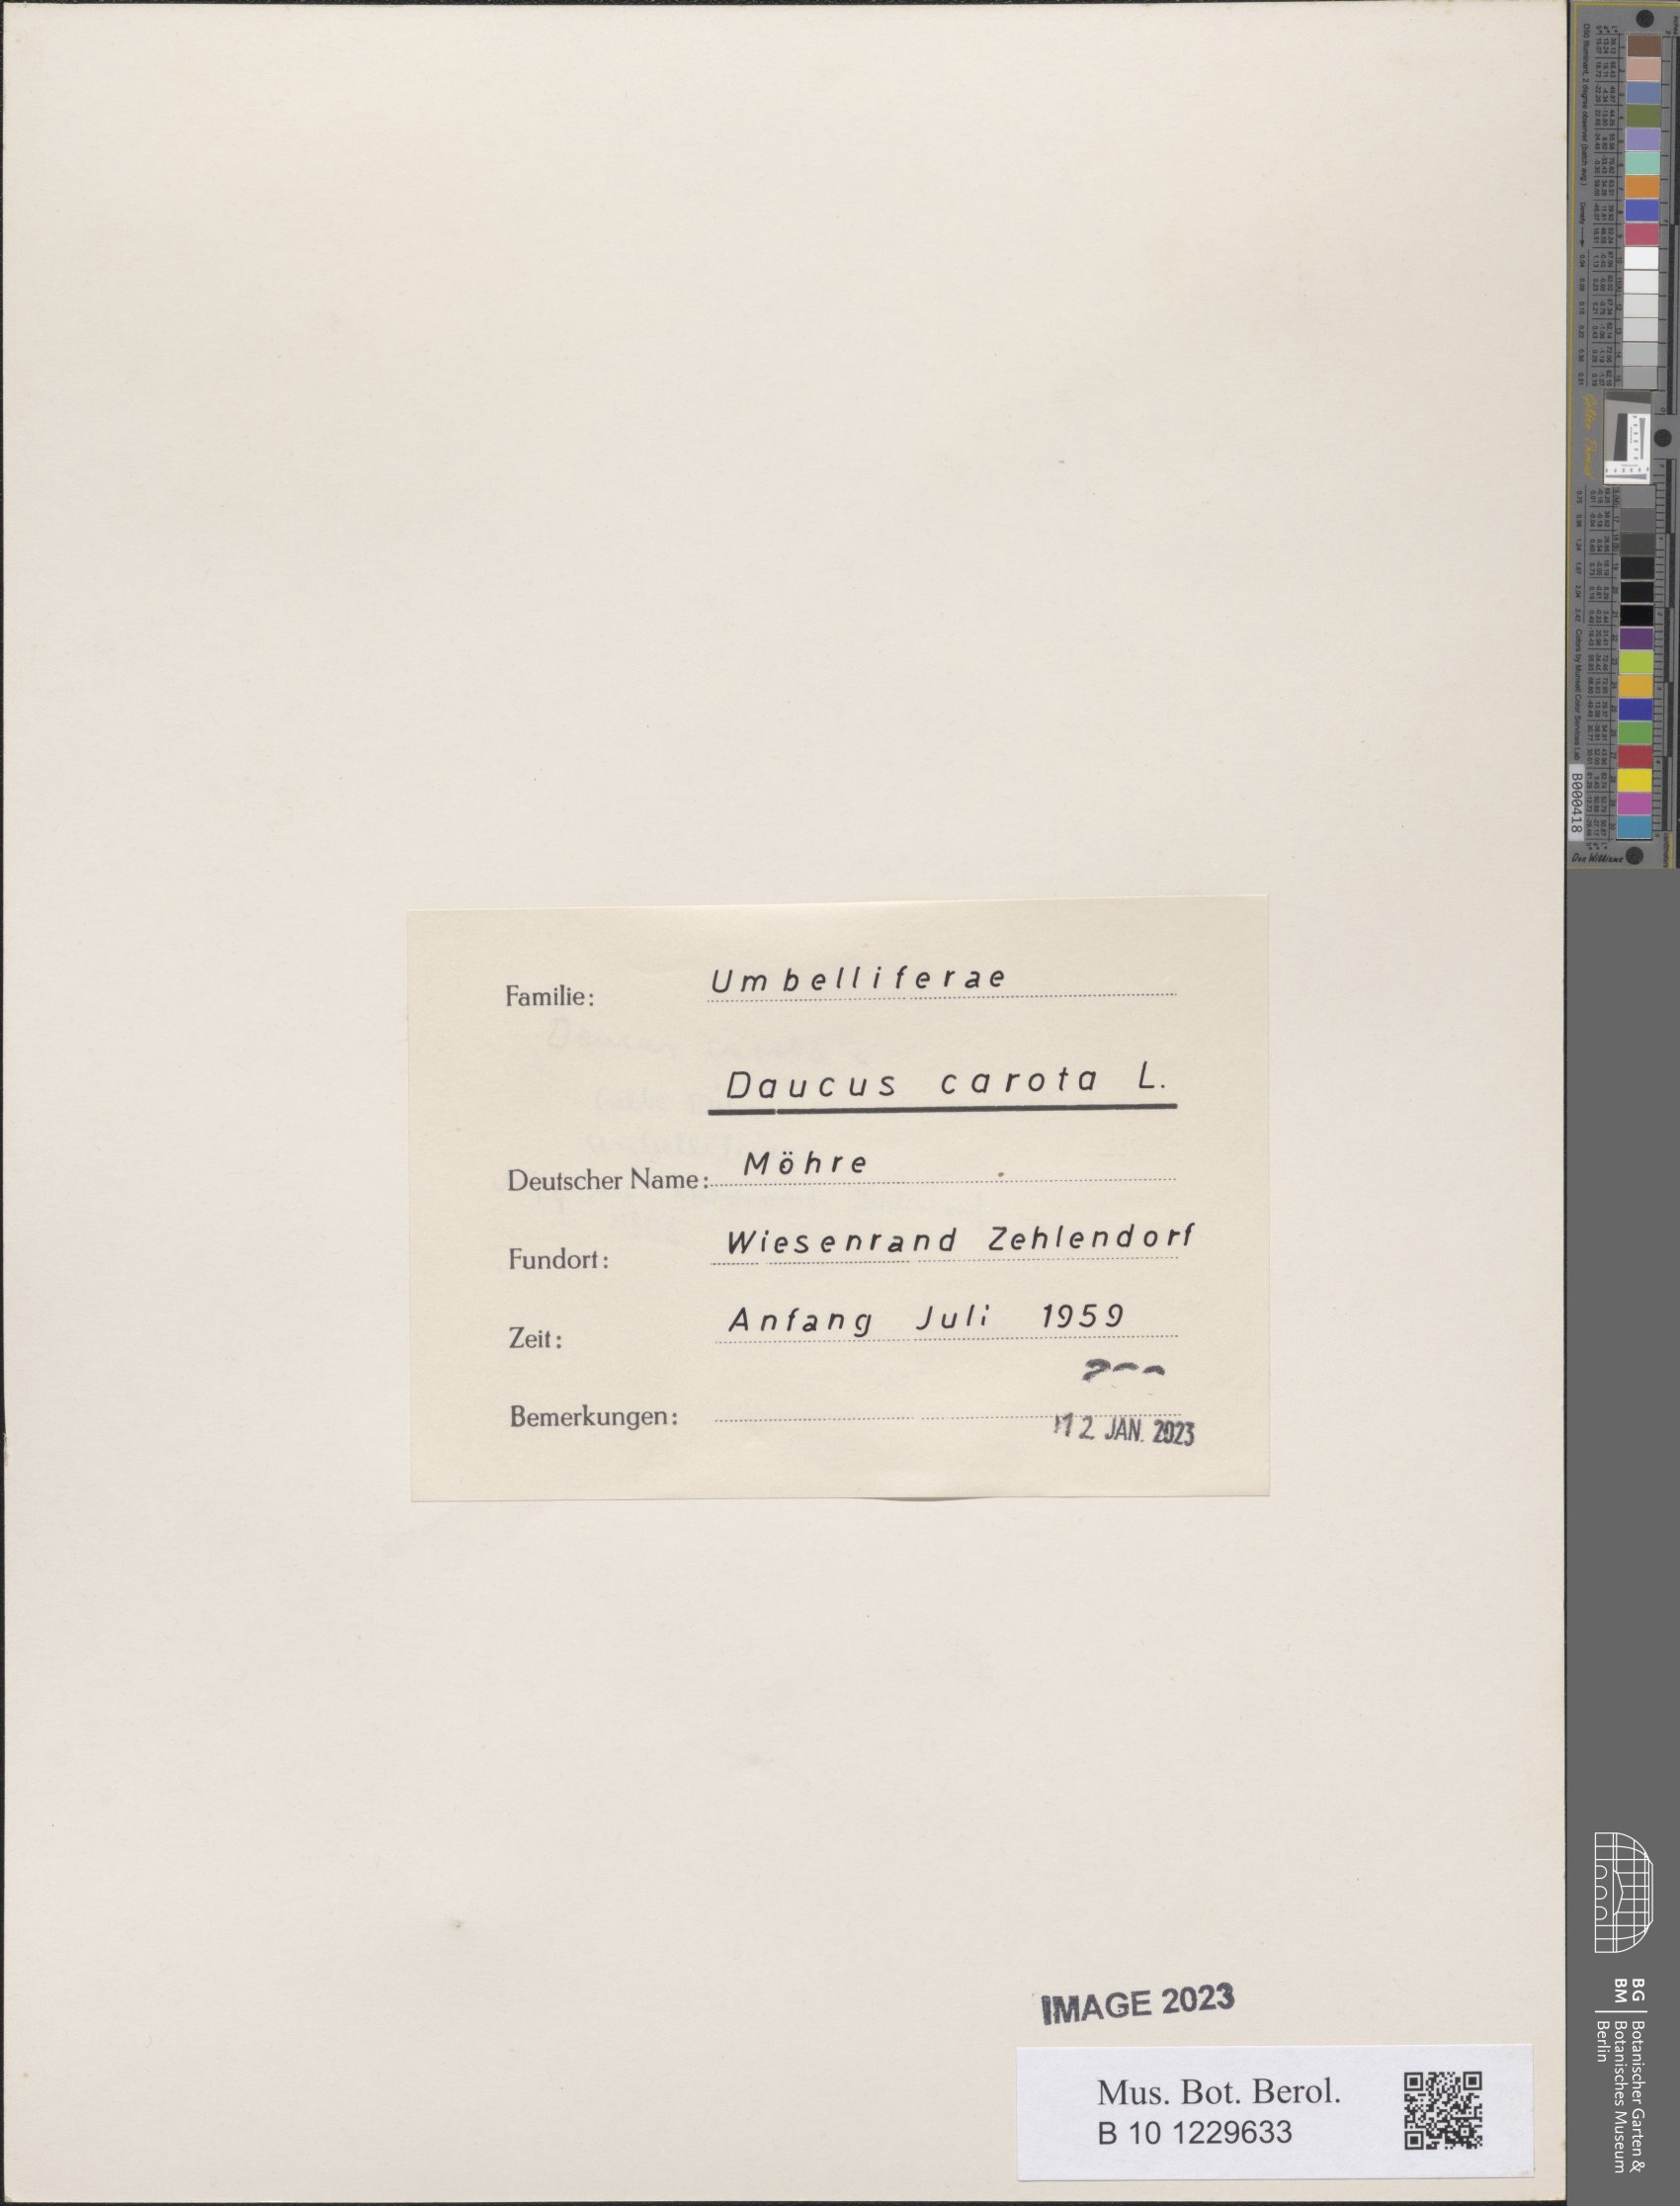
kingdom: Plantae
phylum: Tracheophyta
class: Magnoliopsida
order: Apiales
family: Apiaceae
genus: Daucus
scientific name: Daucus carota
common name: Wild carrot
